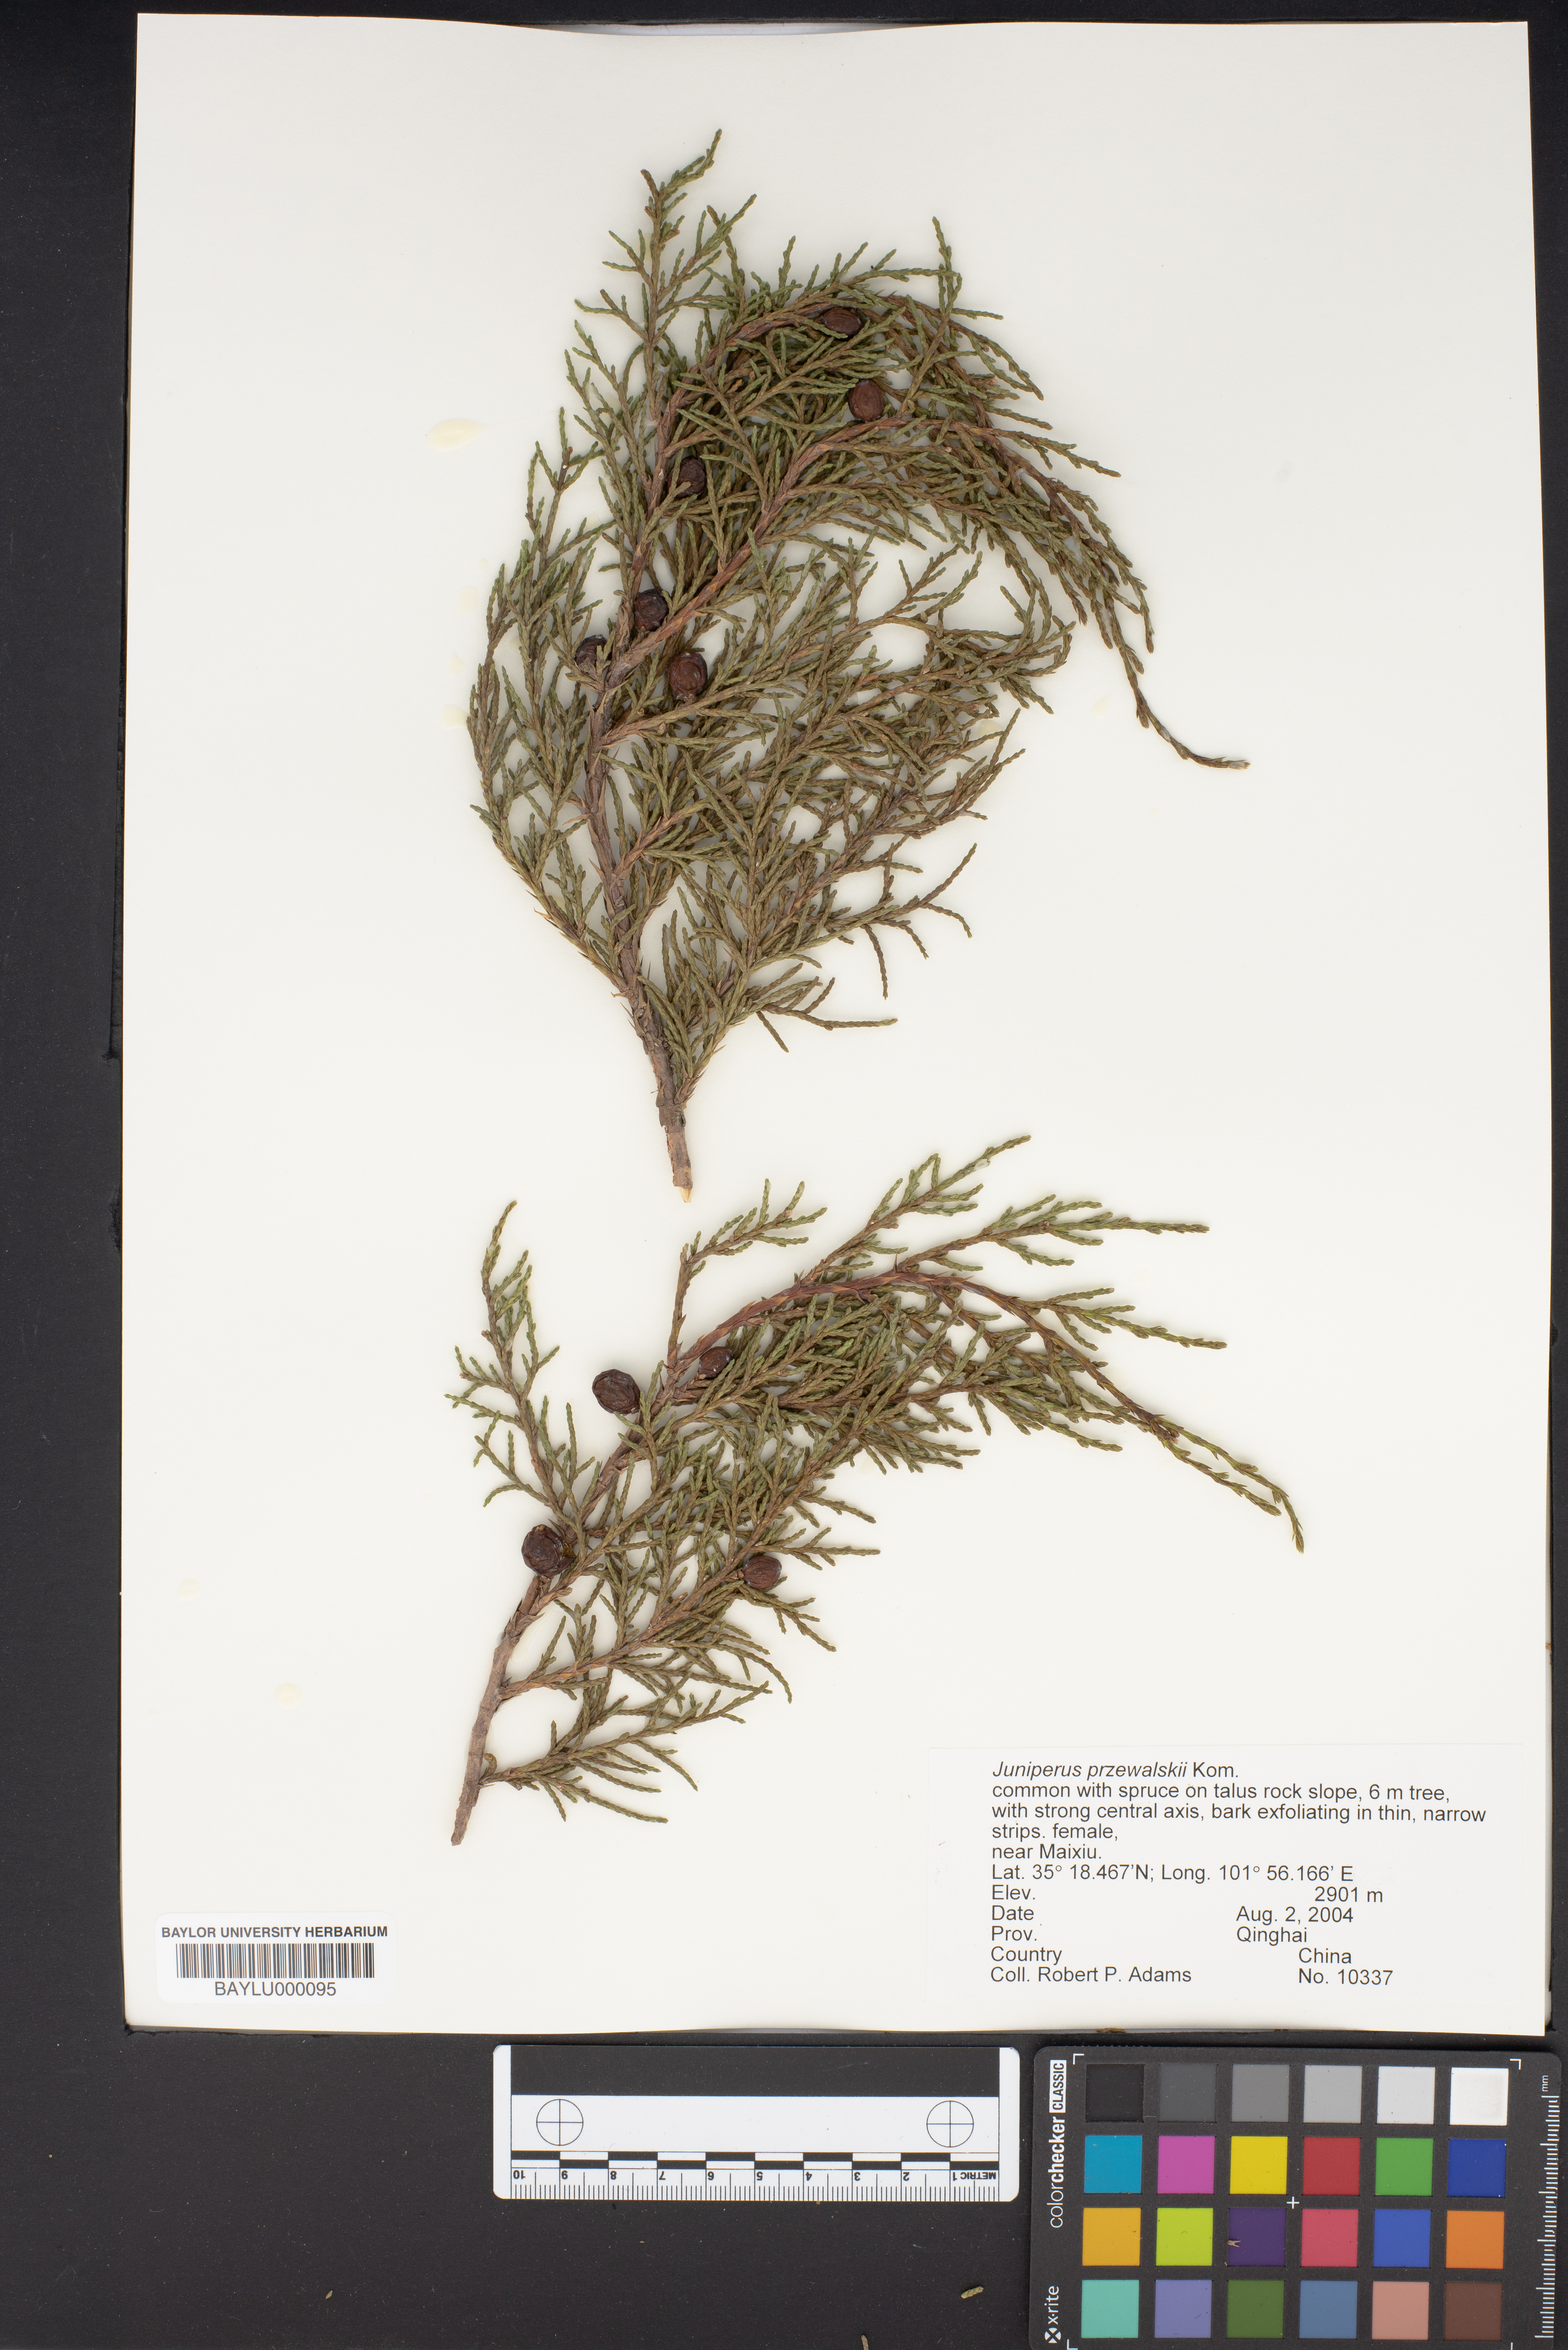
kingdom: Plantae
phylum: Tracheophyta
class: Pinopsida
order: Pinales
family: Cupressaceae
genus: Juniperus
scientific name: Juniperus przewalskii
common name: Przewalsi juniper
